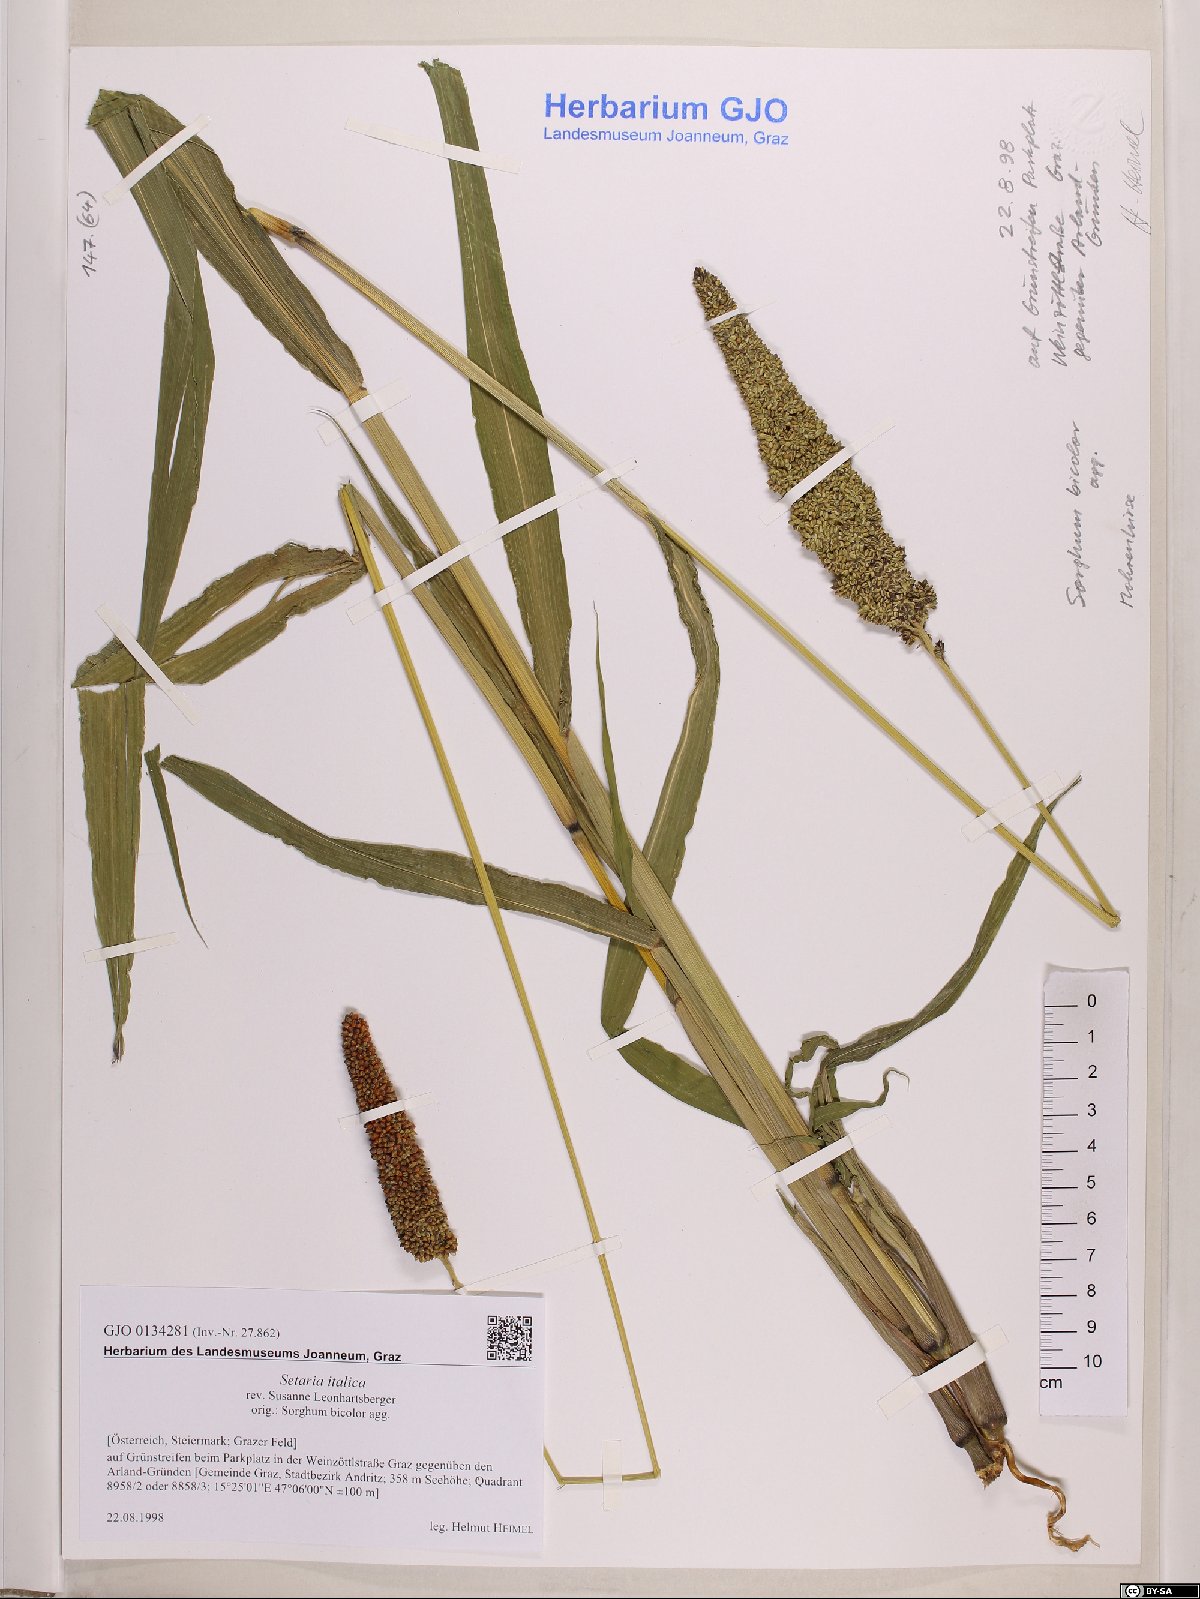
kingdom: Plantae
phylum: Tracheophyta
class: Liliopsida
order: Poales
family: Poaceae
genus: Setaria
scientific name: Setaria italica
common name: Foxtail bristle-grass
